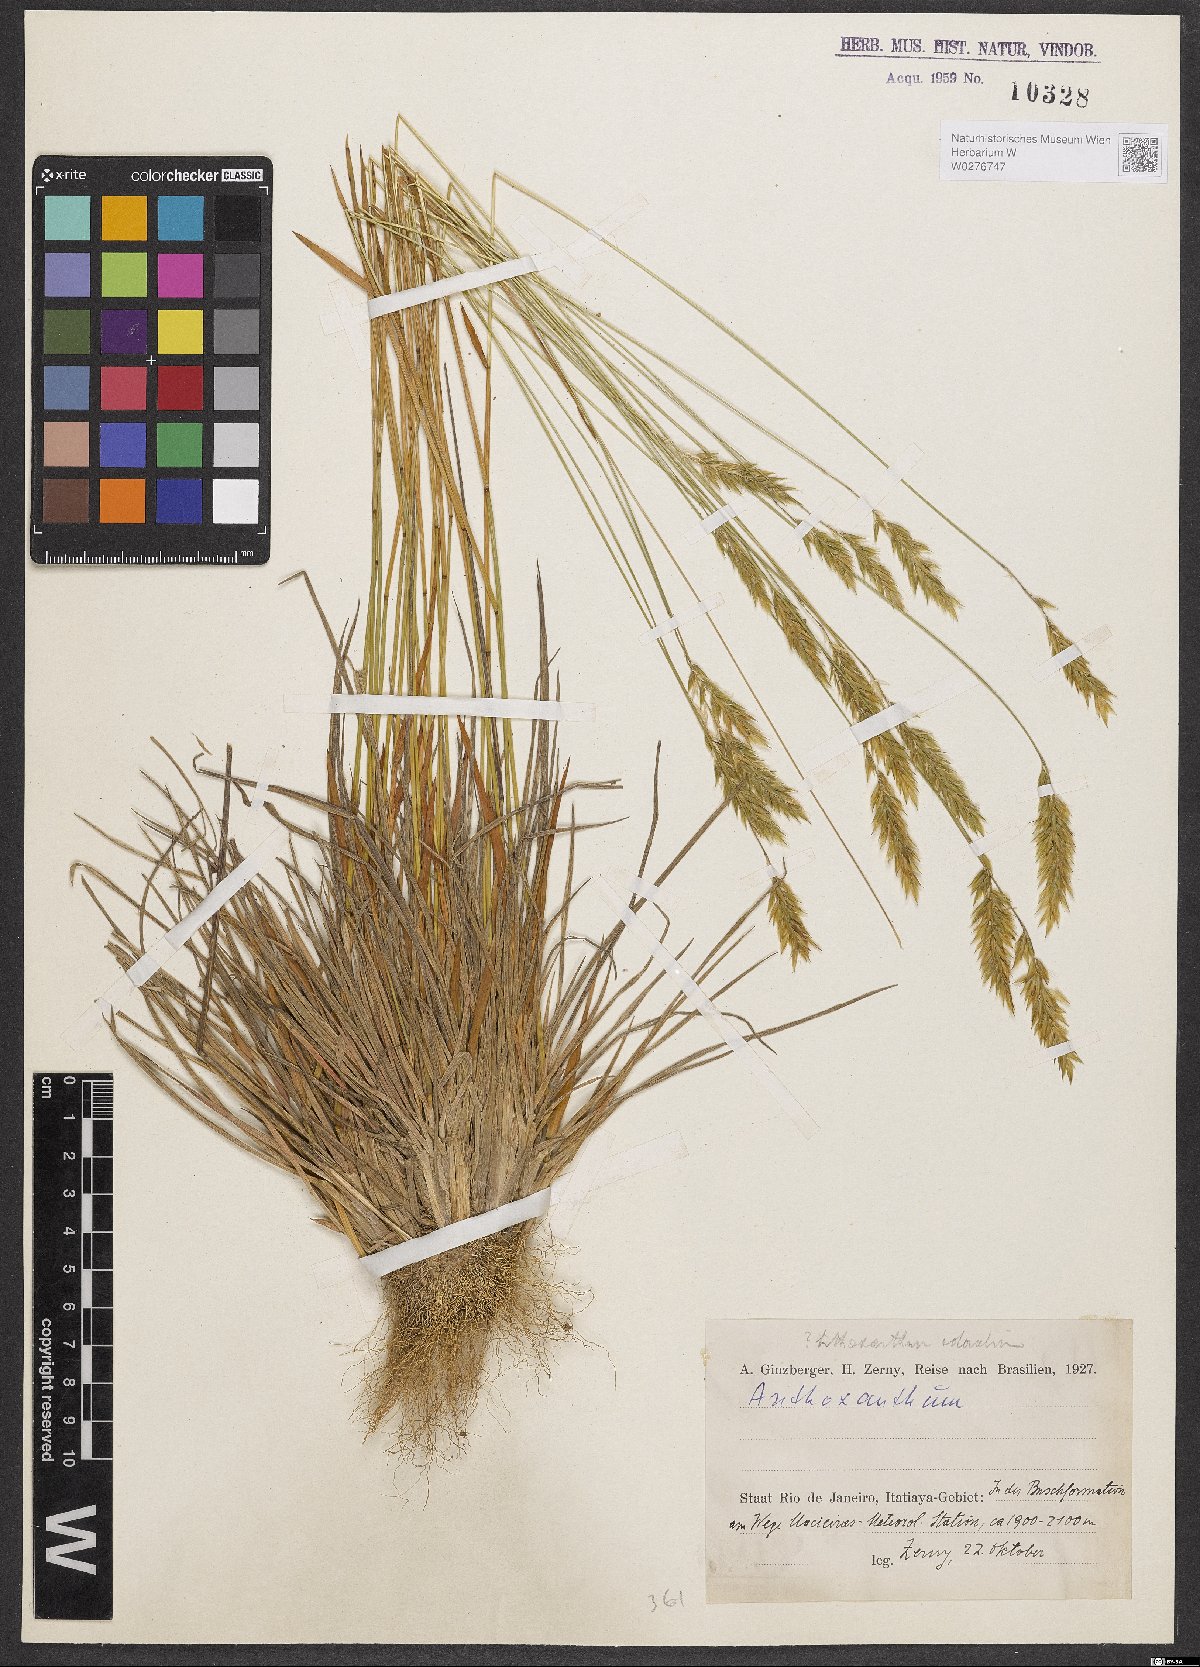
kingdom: Plantae
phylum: Tracheophyta
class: Liliopsida
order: Poales
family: Poaceae
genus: Anthoxanthum
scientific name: Anthoxanthum odoratum
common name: Sweet vernalgrass
